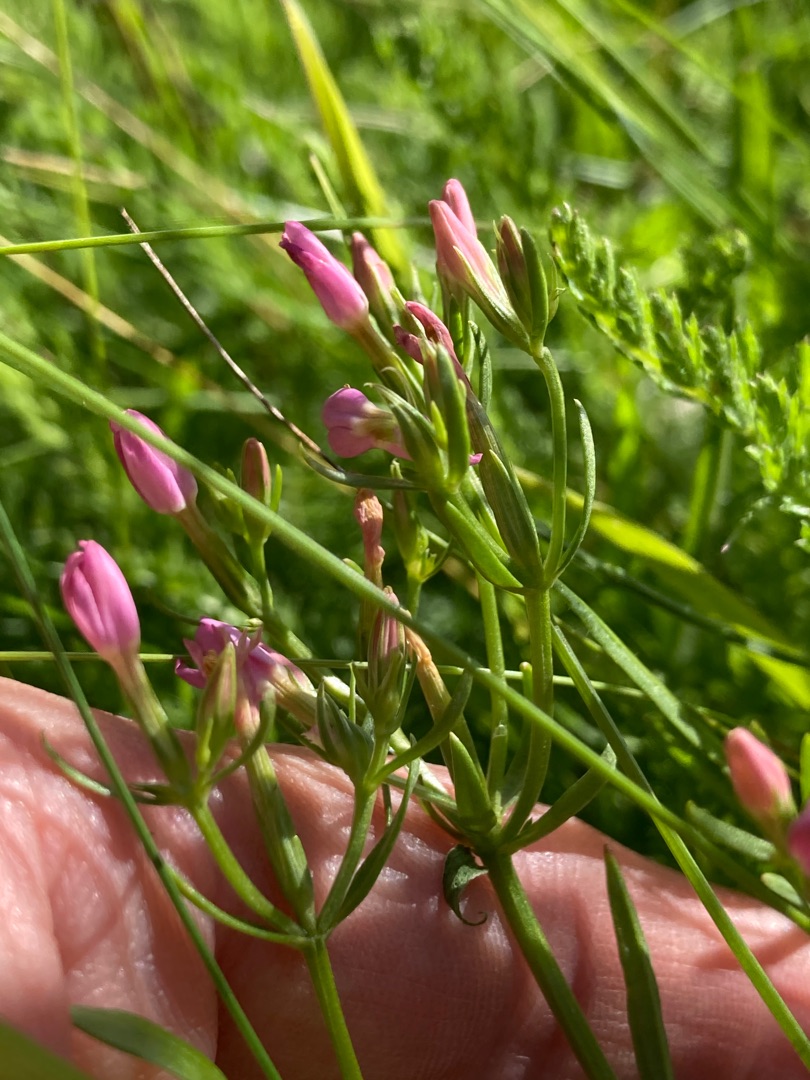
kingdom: Plantae
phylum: Tracheophyta
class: Magnoliopsida
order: Gentianales
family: Gentianaceae
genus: Centaurium
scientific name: Centaurium erythraea
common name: Mark-tusindgylden
